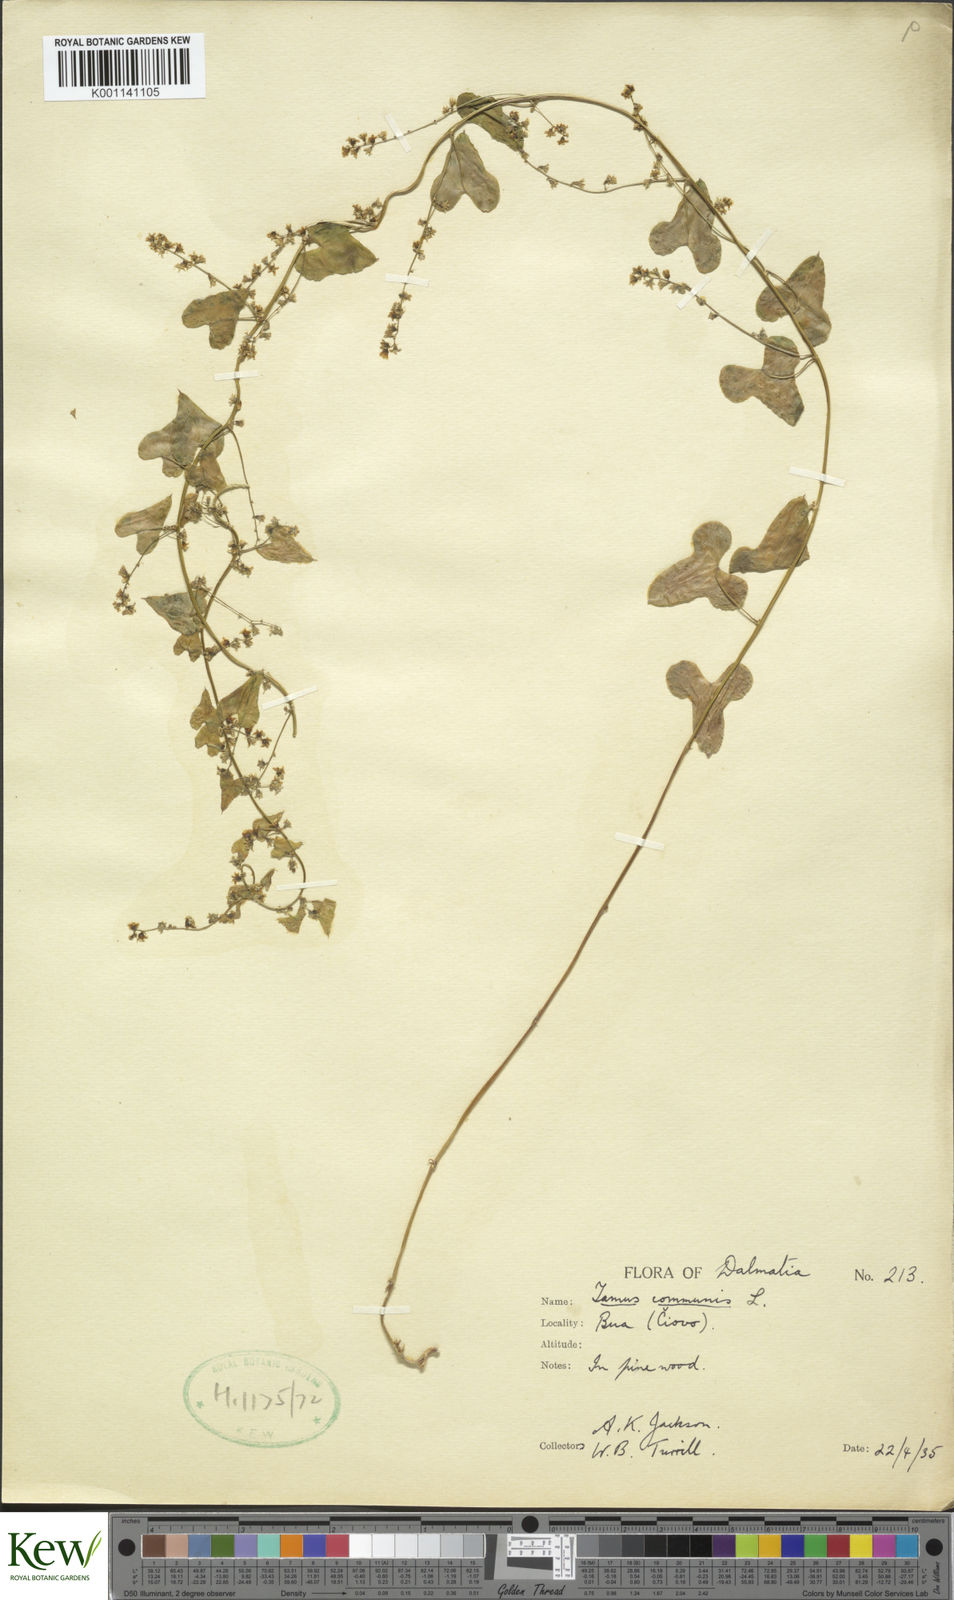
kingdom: Plantae
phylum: Tracheophyta
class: Liliopsida
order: Dioscoreales
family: Dioscoreaceae
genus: Dioscorea
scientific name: Dioscorea communis
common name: Black-bindweed
